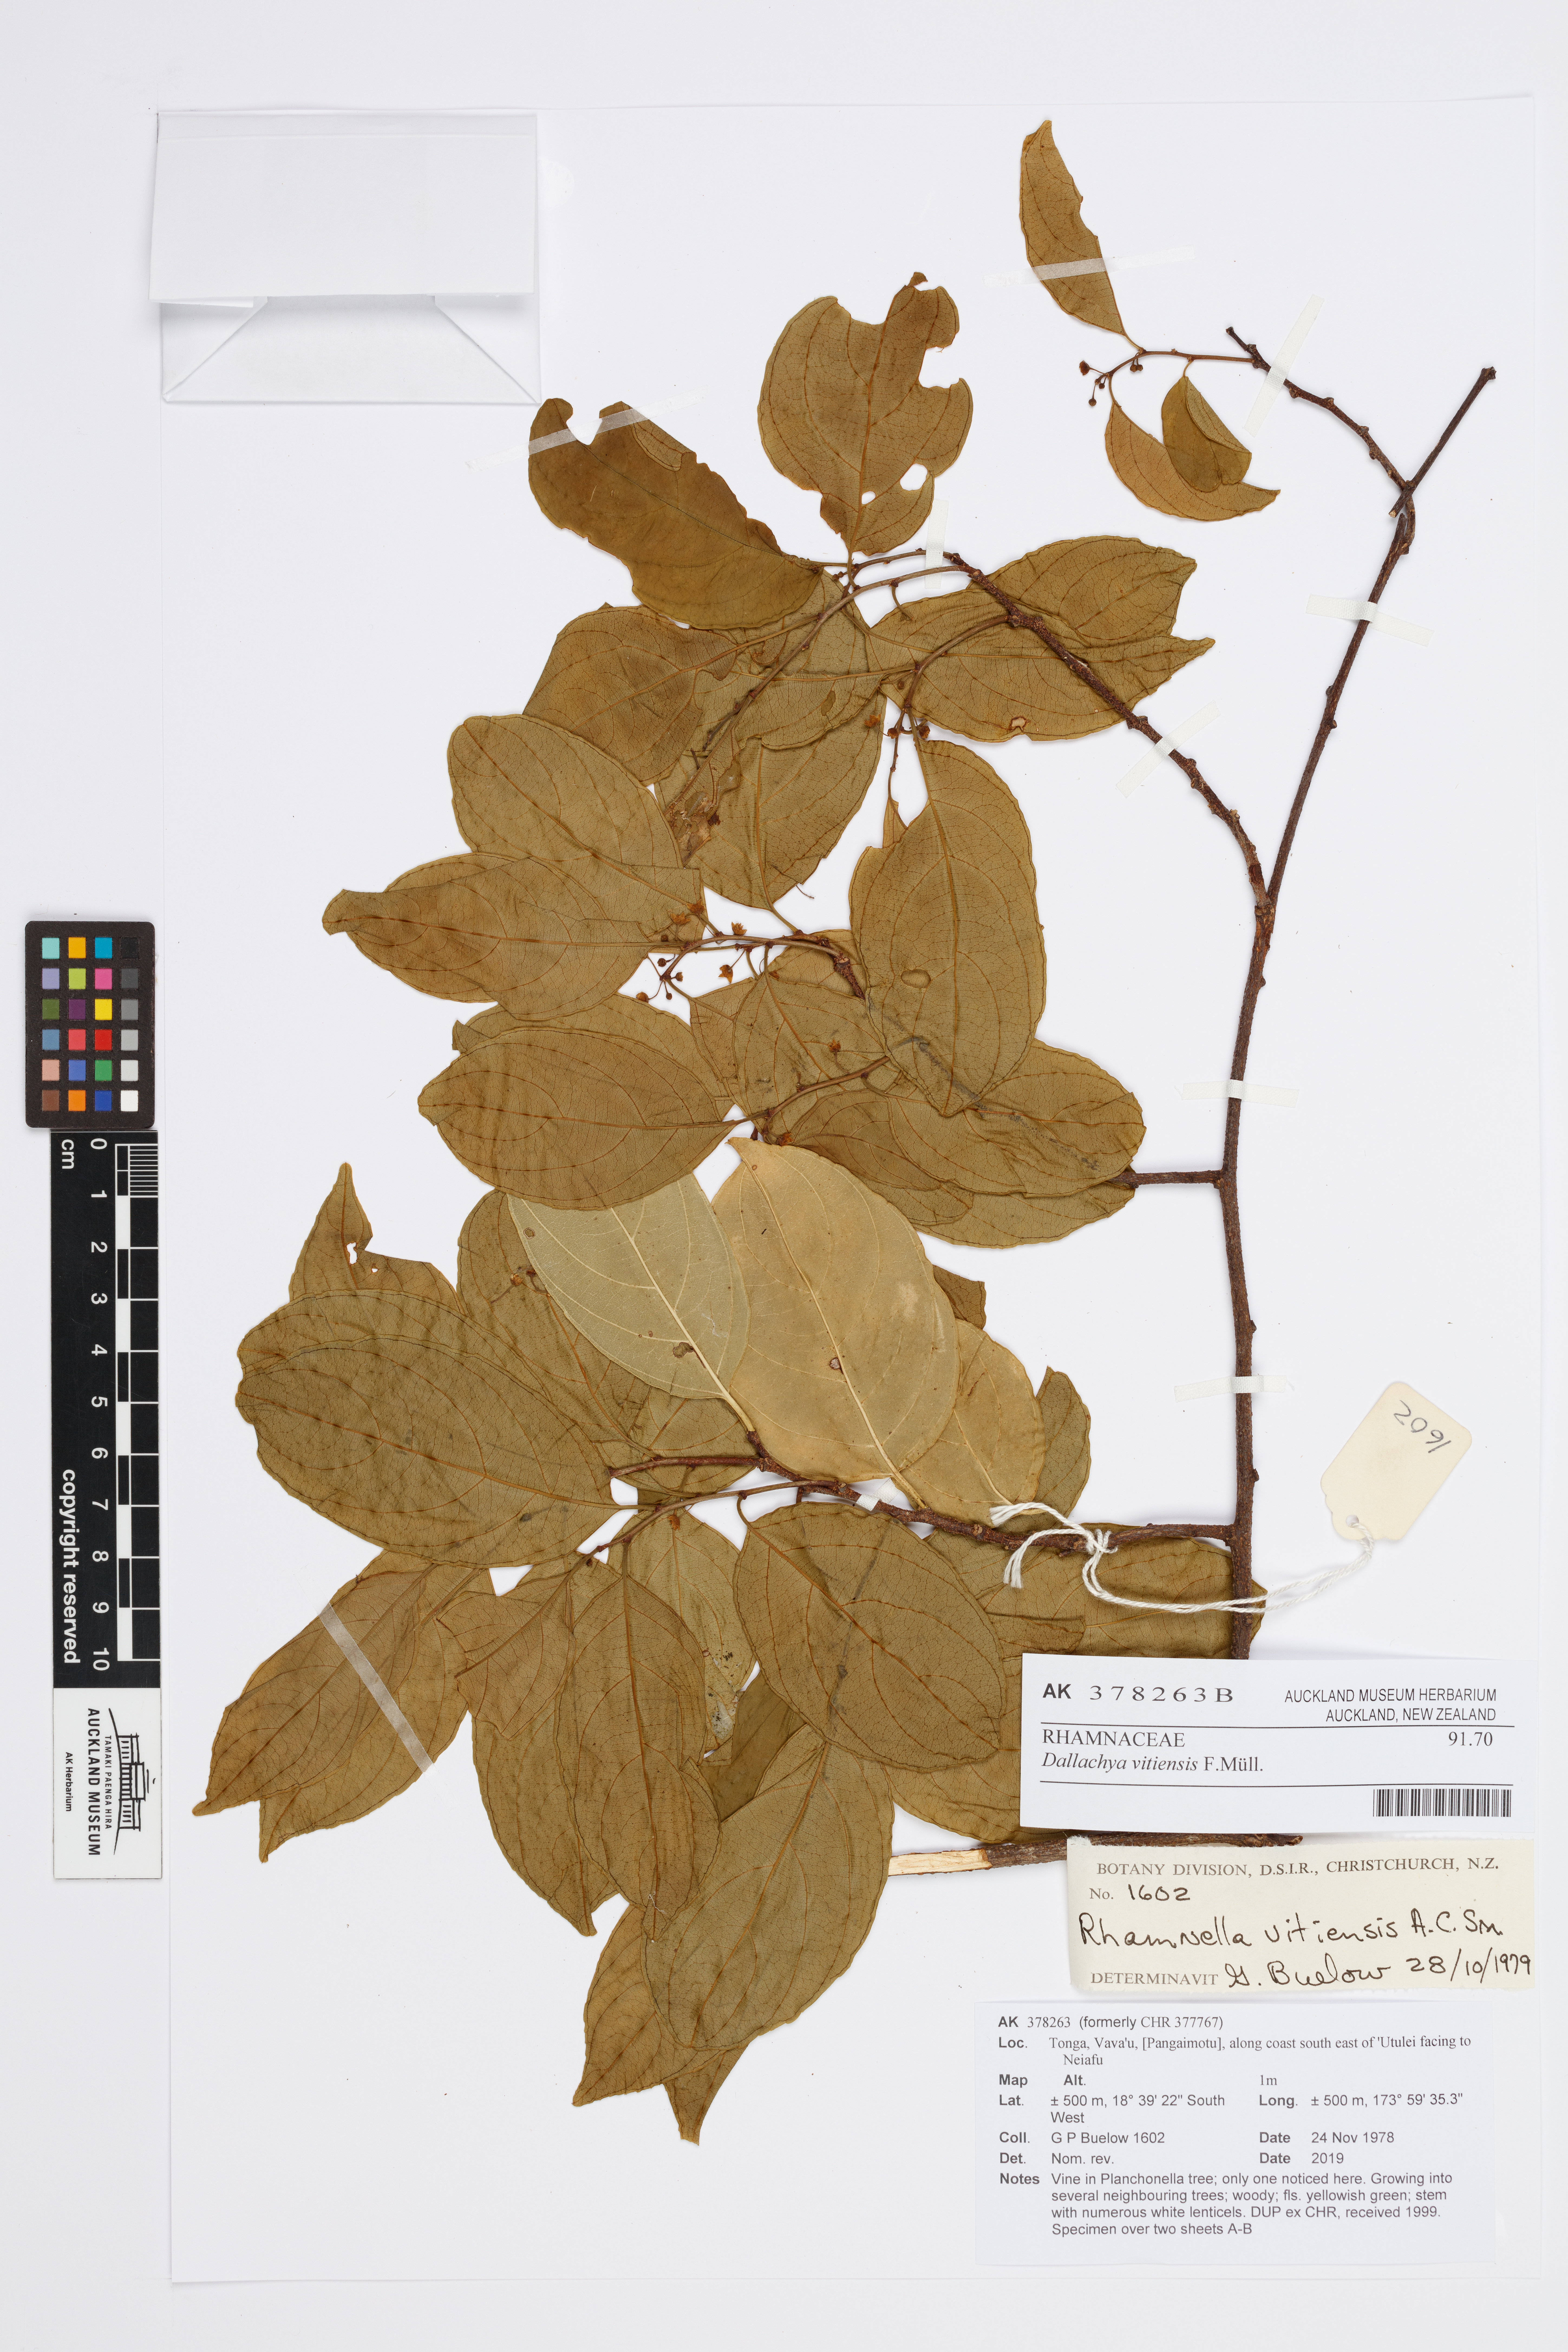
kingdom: Plantae
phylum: Tracheophyta
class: Magnoliopsida
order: Rosales
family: Rhamnaceae
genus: Dallachya
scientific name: Dallachya vitiensis
